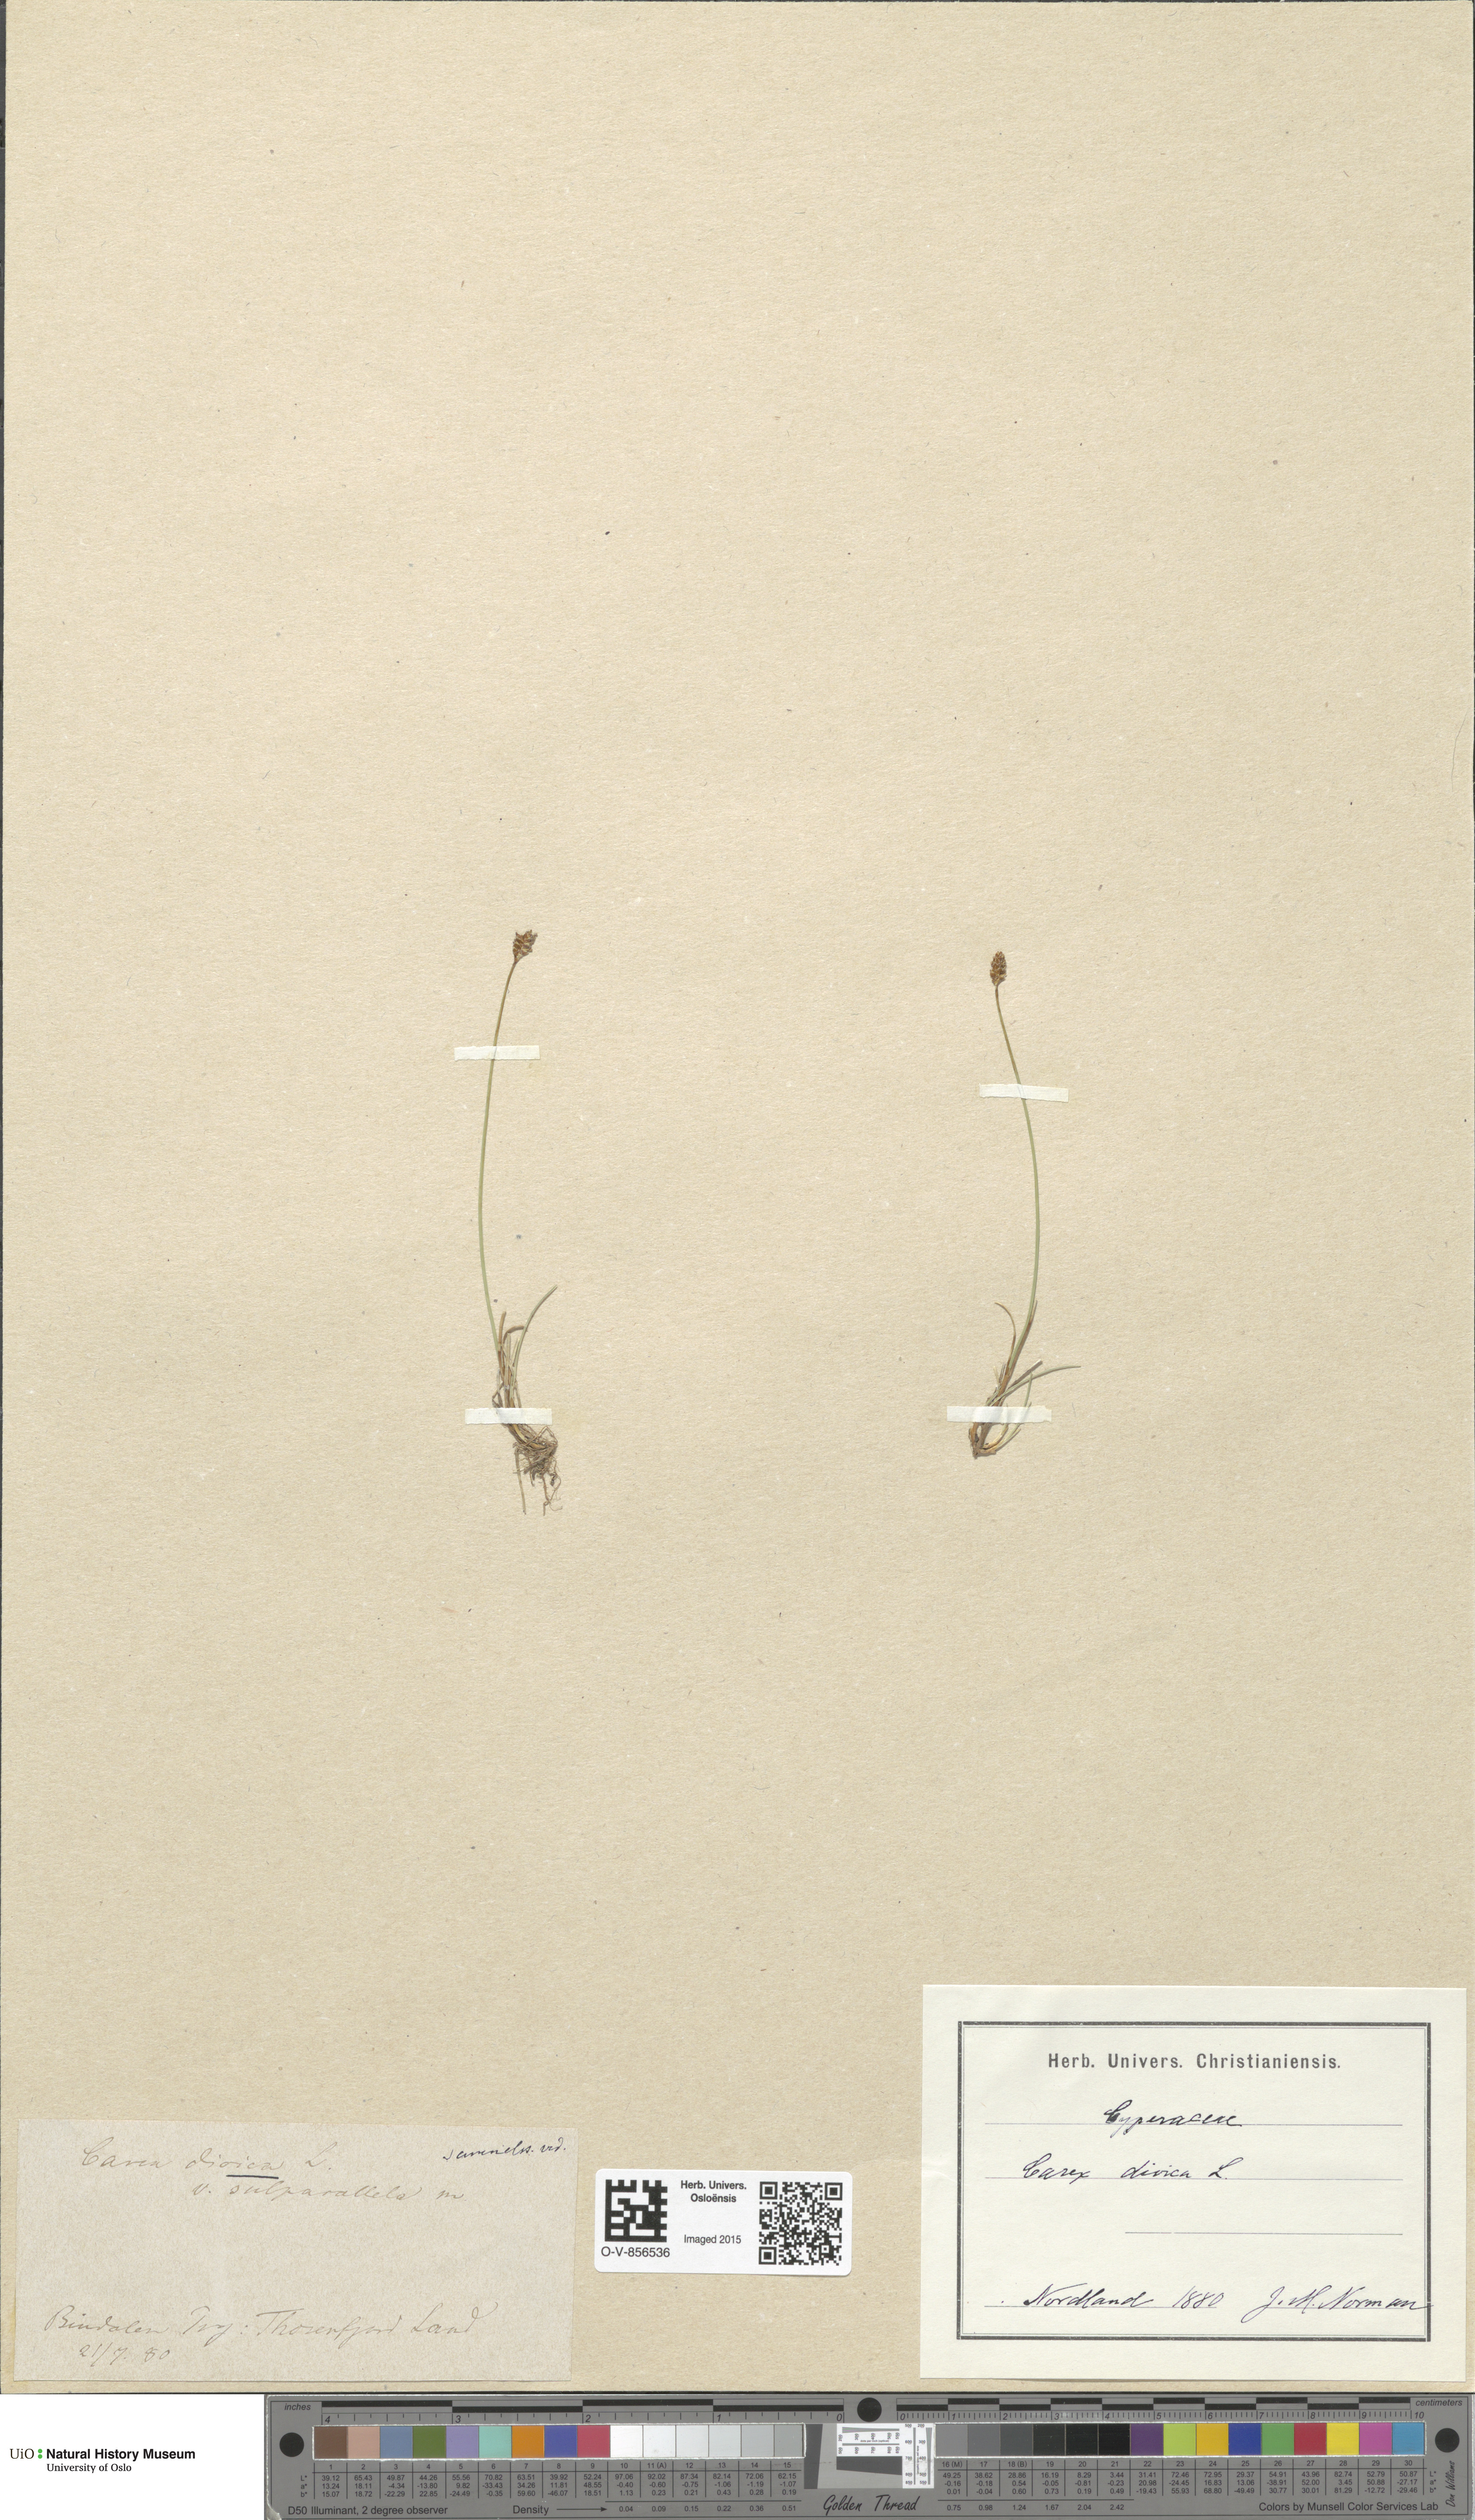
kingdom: Plantae
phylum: Tracheophyta
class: Liliopsida
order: Poales
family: Cyperaceae
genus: Carex
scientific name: Carex dioica
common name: Dioecious sedge
